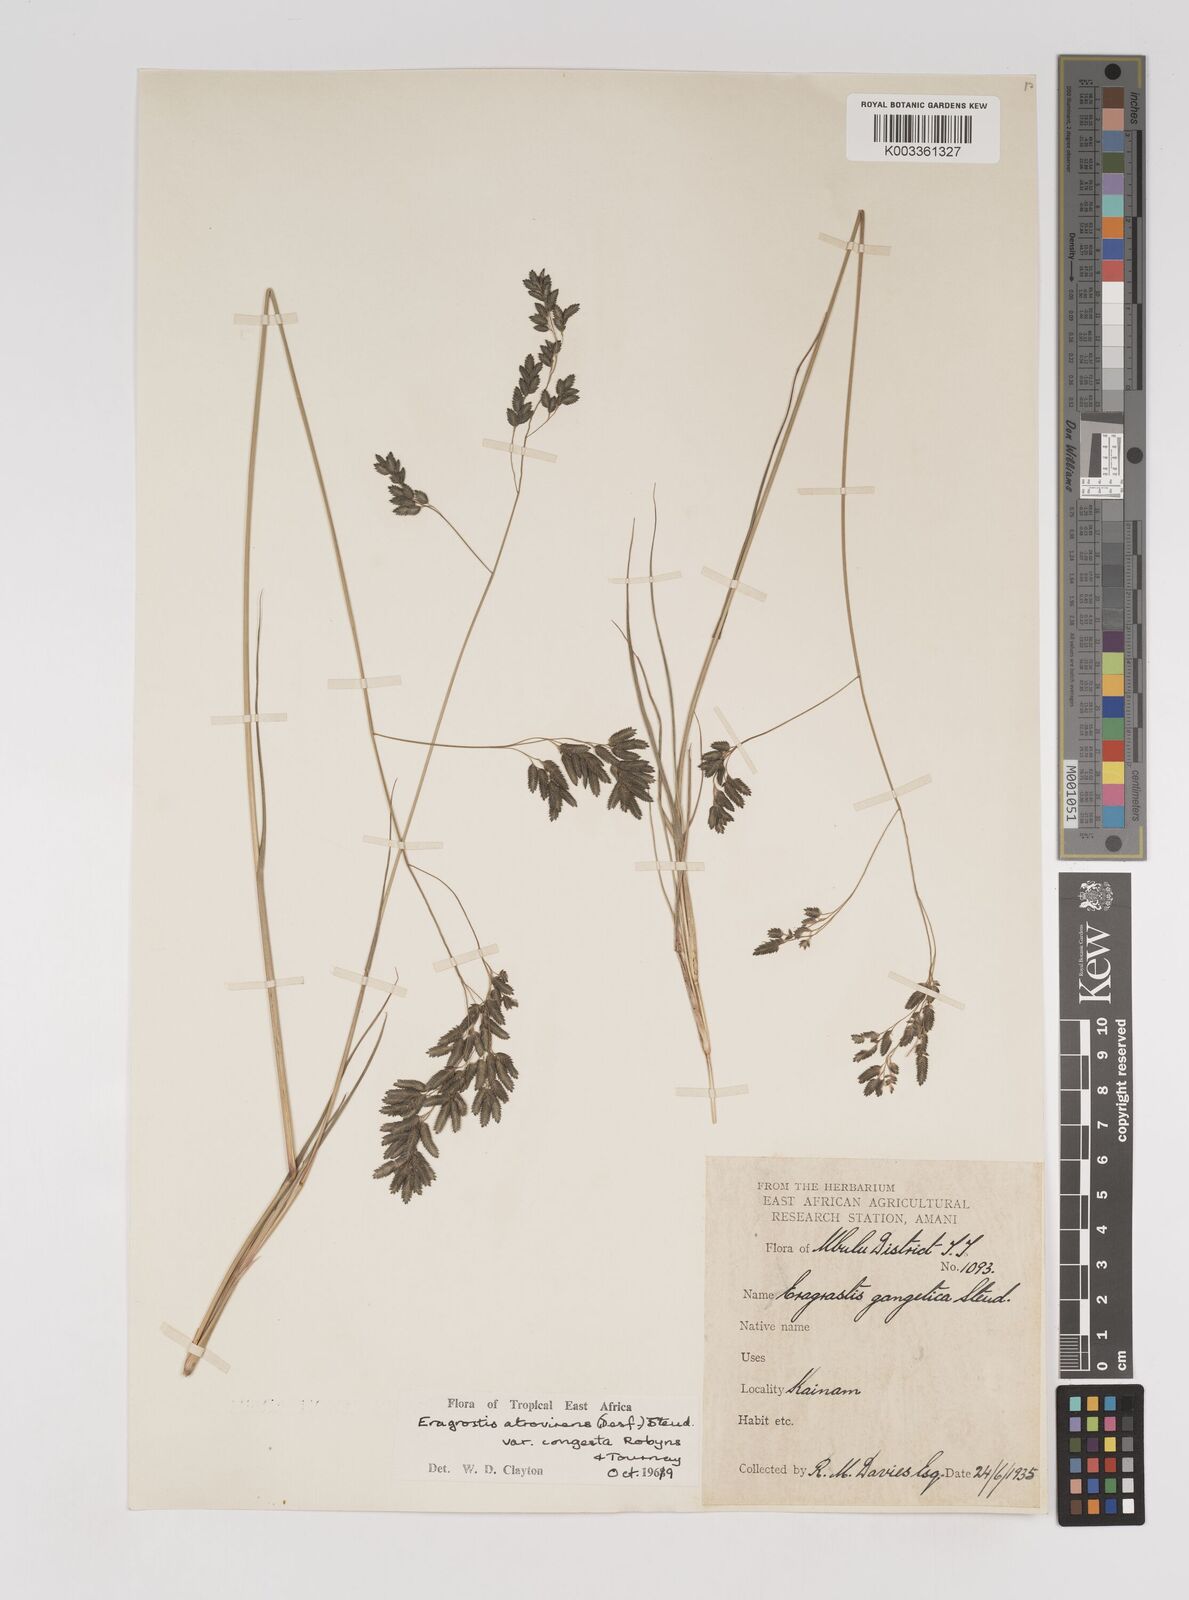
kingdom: Plantae
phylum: Tracheophyta
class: Liliopsida
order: Poales
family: Poaceae
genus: Eragrostis
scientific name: Eragrostis botryodes
